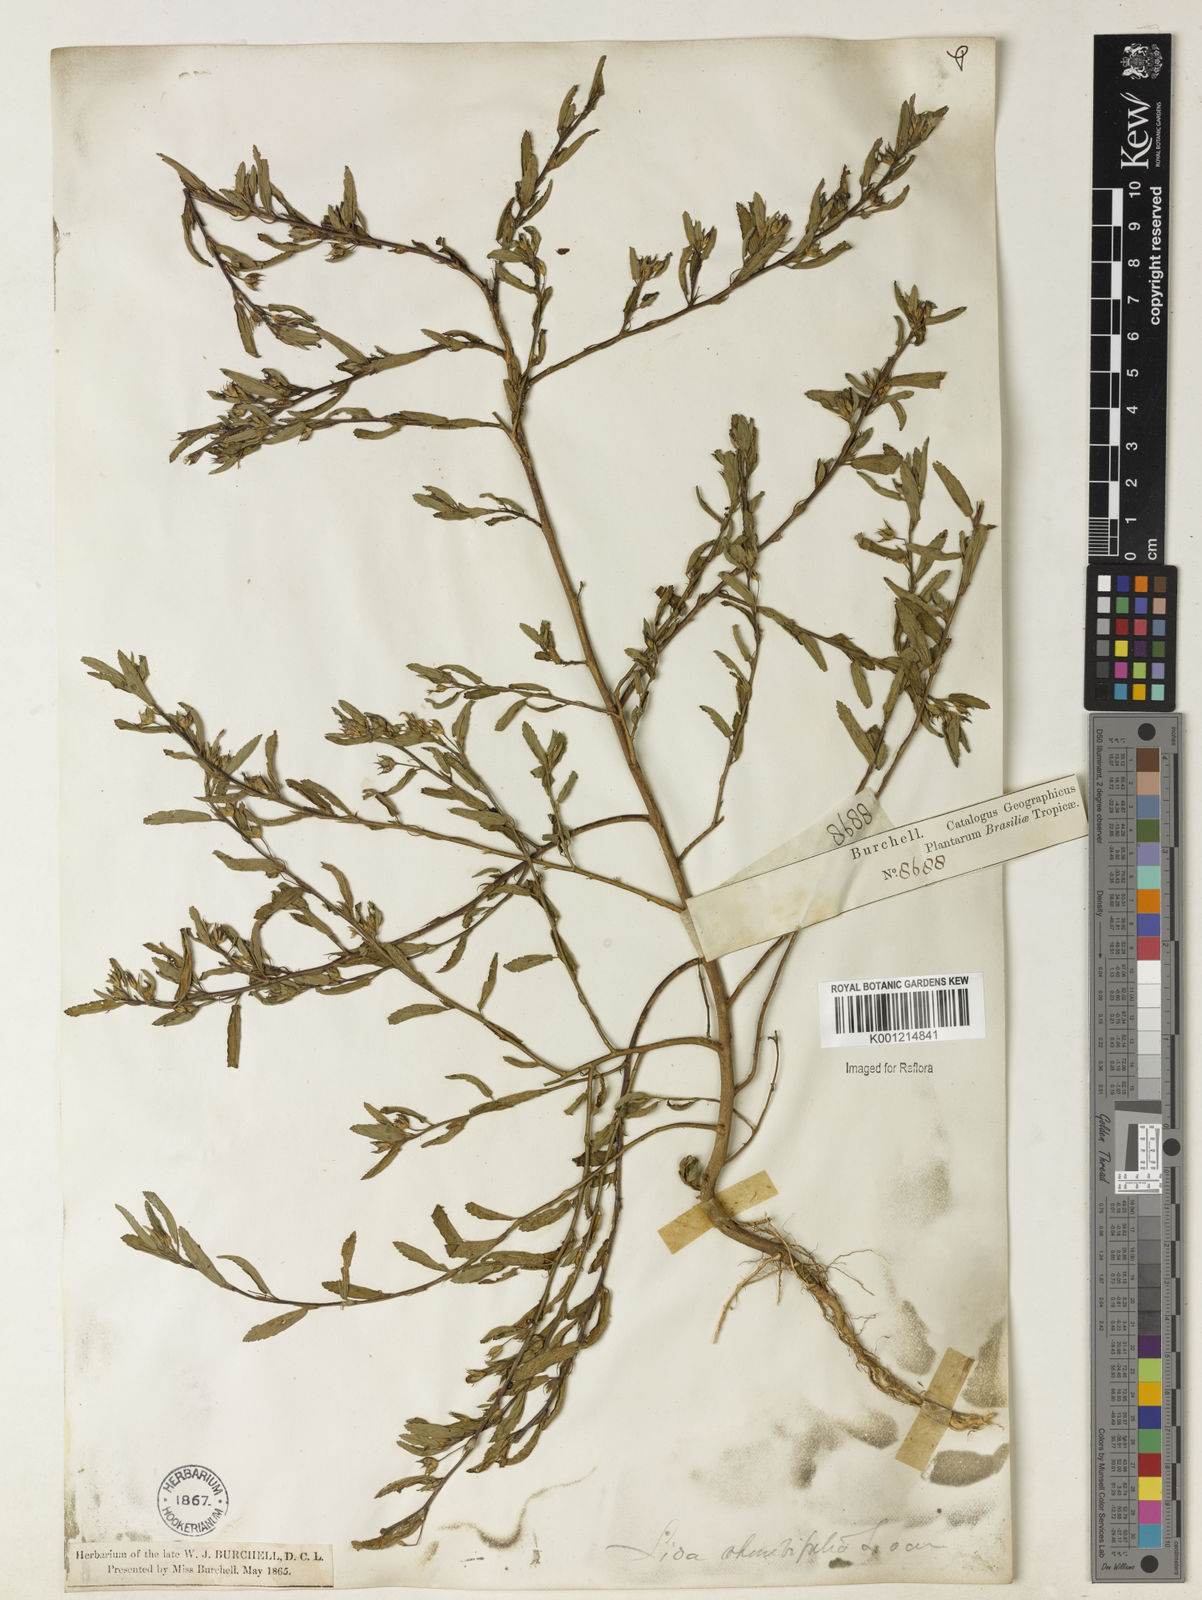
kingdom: Plantae
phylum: Tracheophyta
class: Magnoliopsida
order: Malvales
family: Malvaceae
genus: Sida
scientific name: Sida rhombifolia
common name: Queensland-hemp
